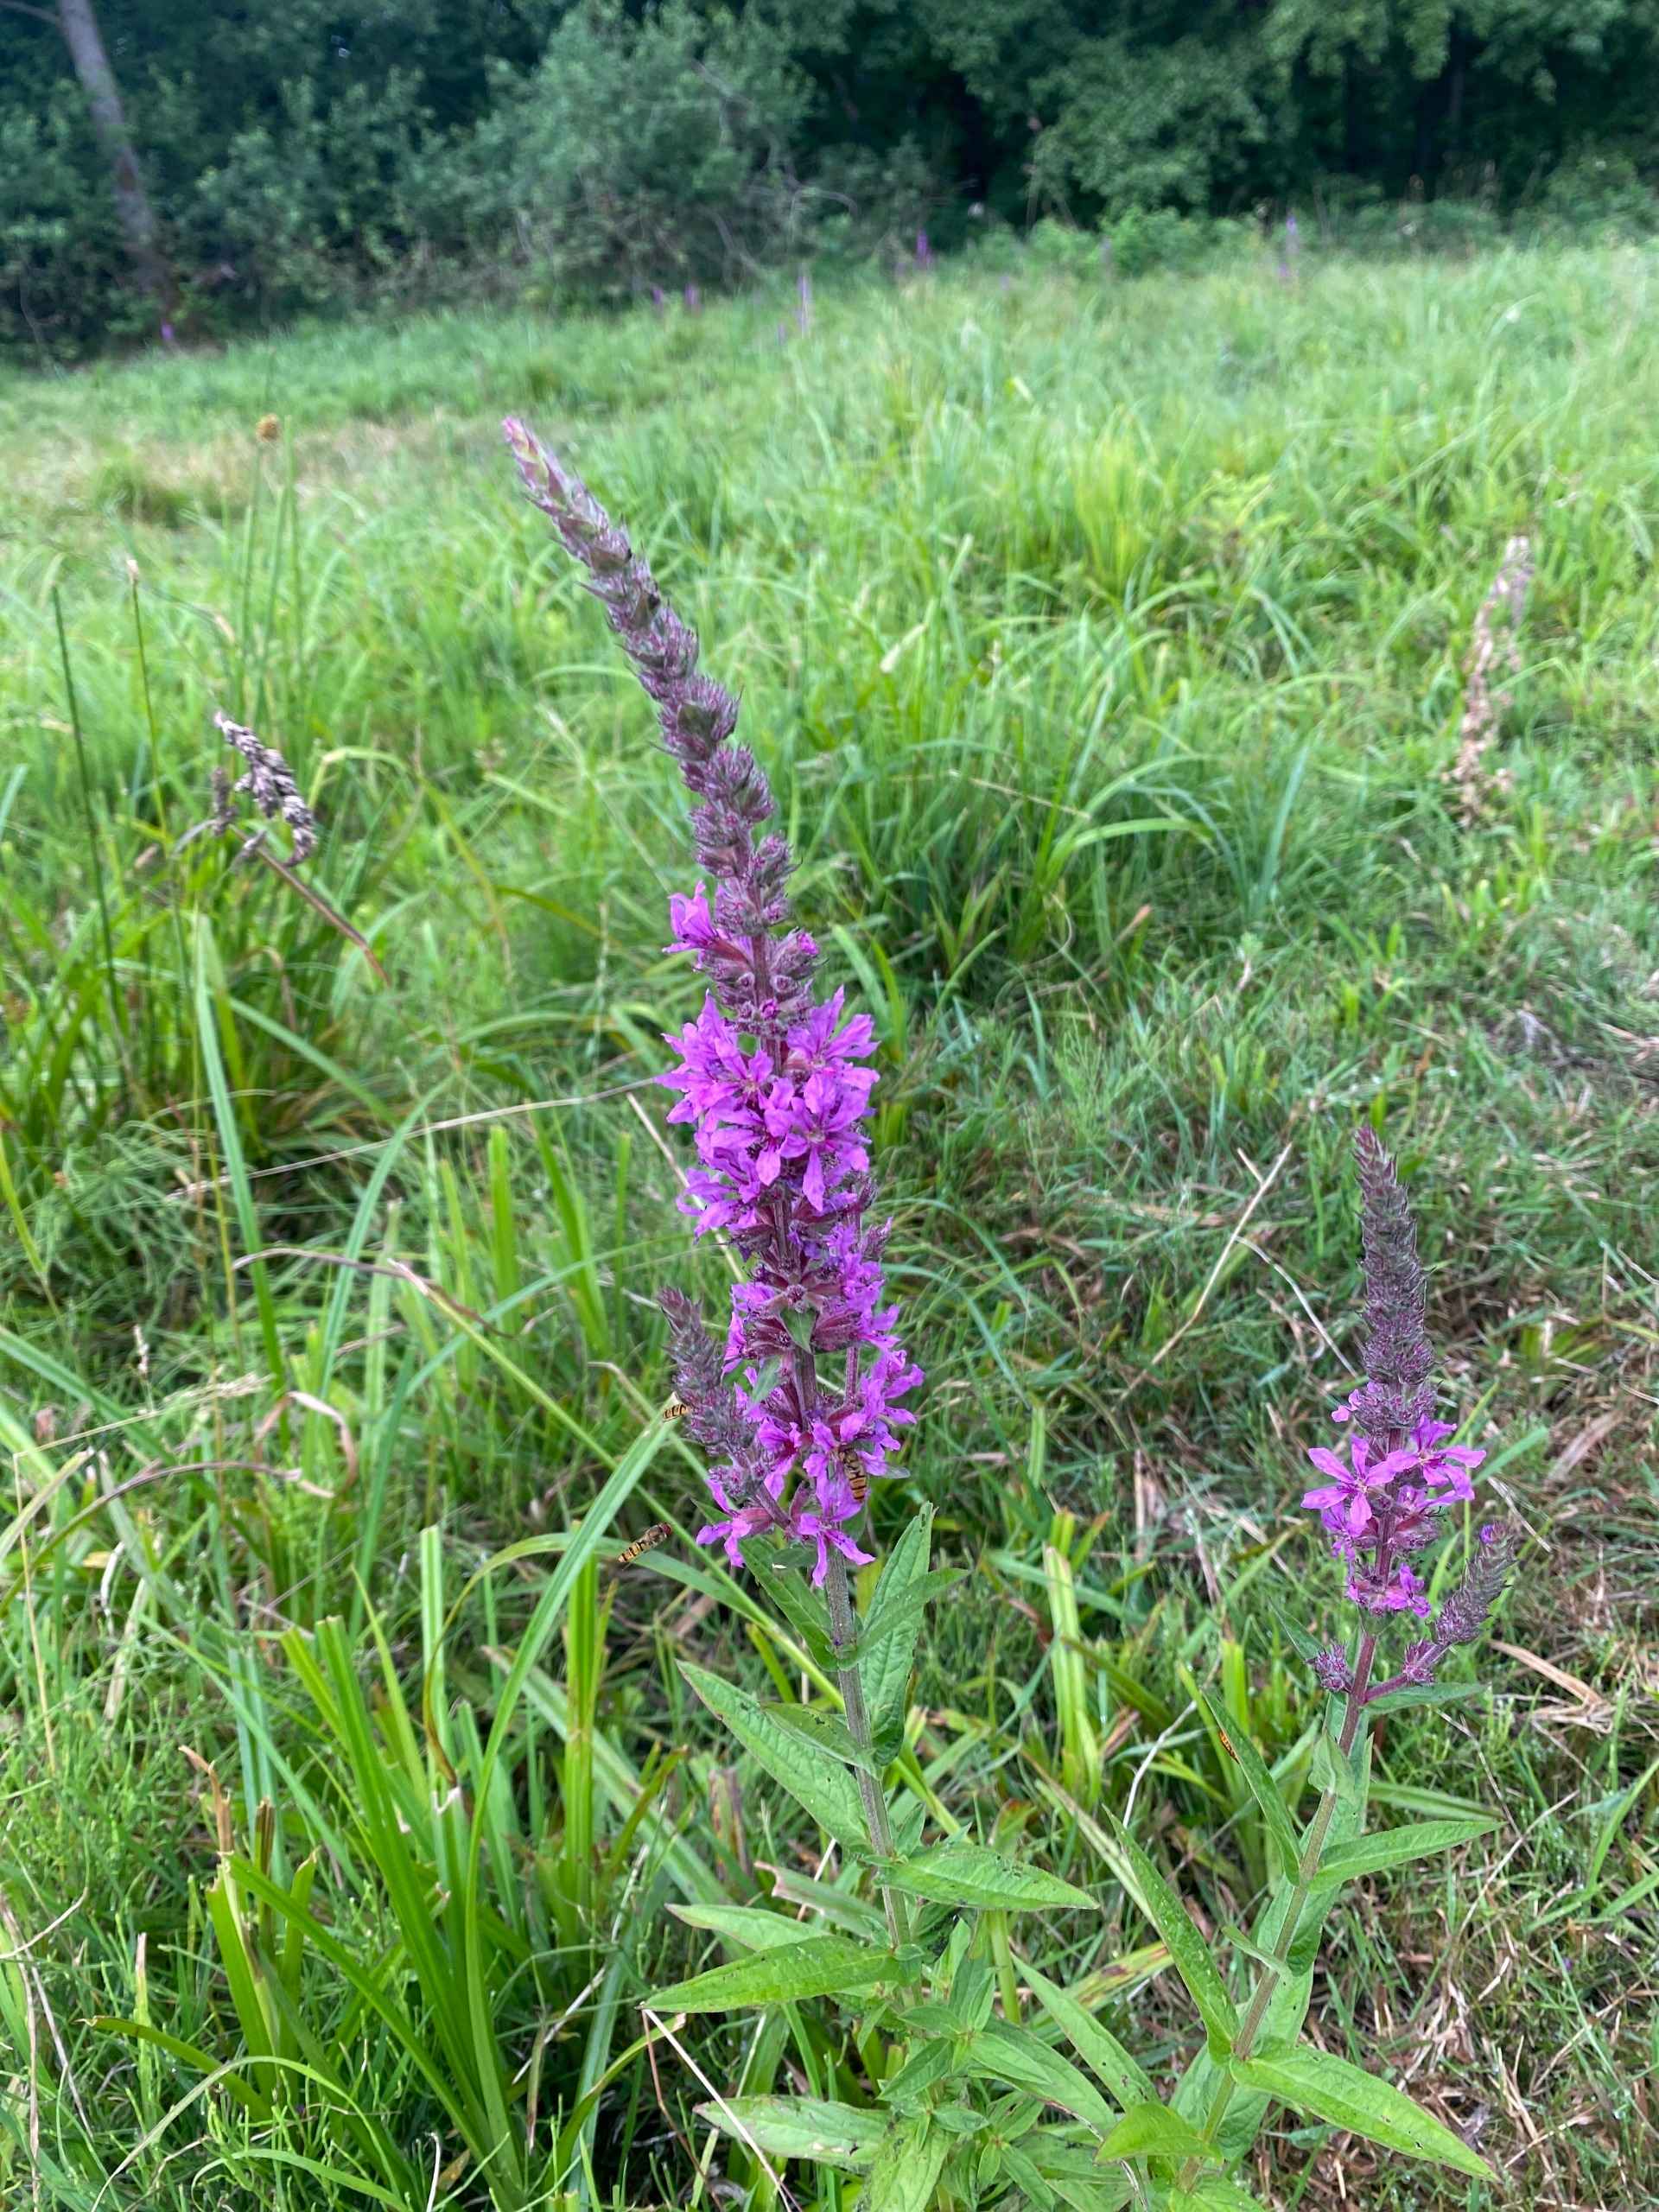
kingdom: Plantae
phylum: Tracheophyta
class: Magnoliopsida
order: Myrtales
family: Lythraceae
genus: Lythrum
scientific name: Lythrum salicaria
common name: Kattehale
